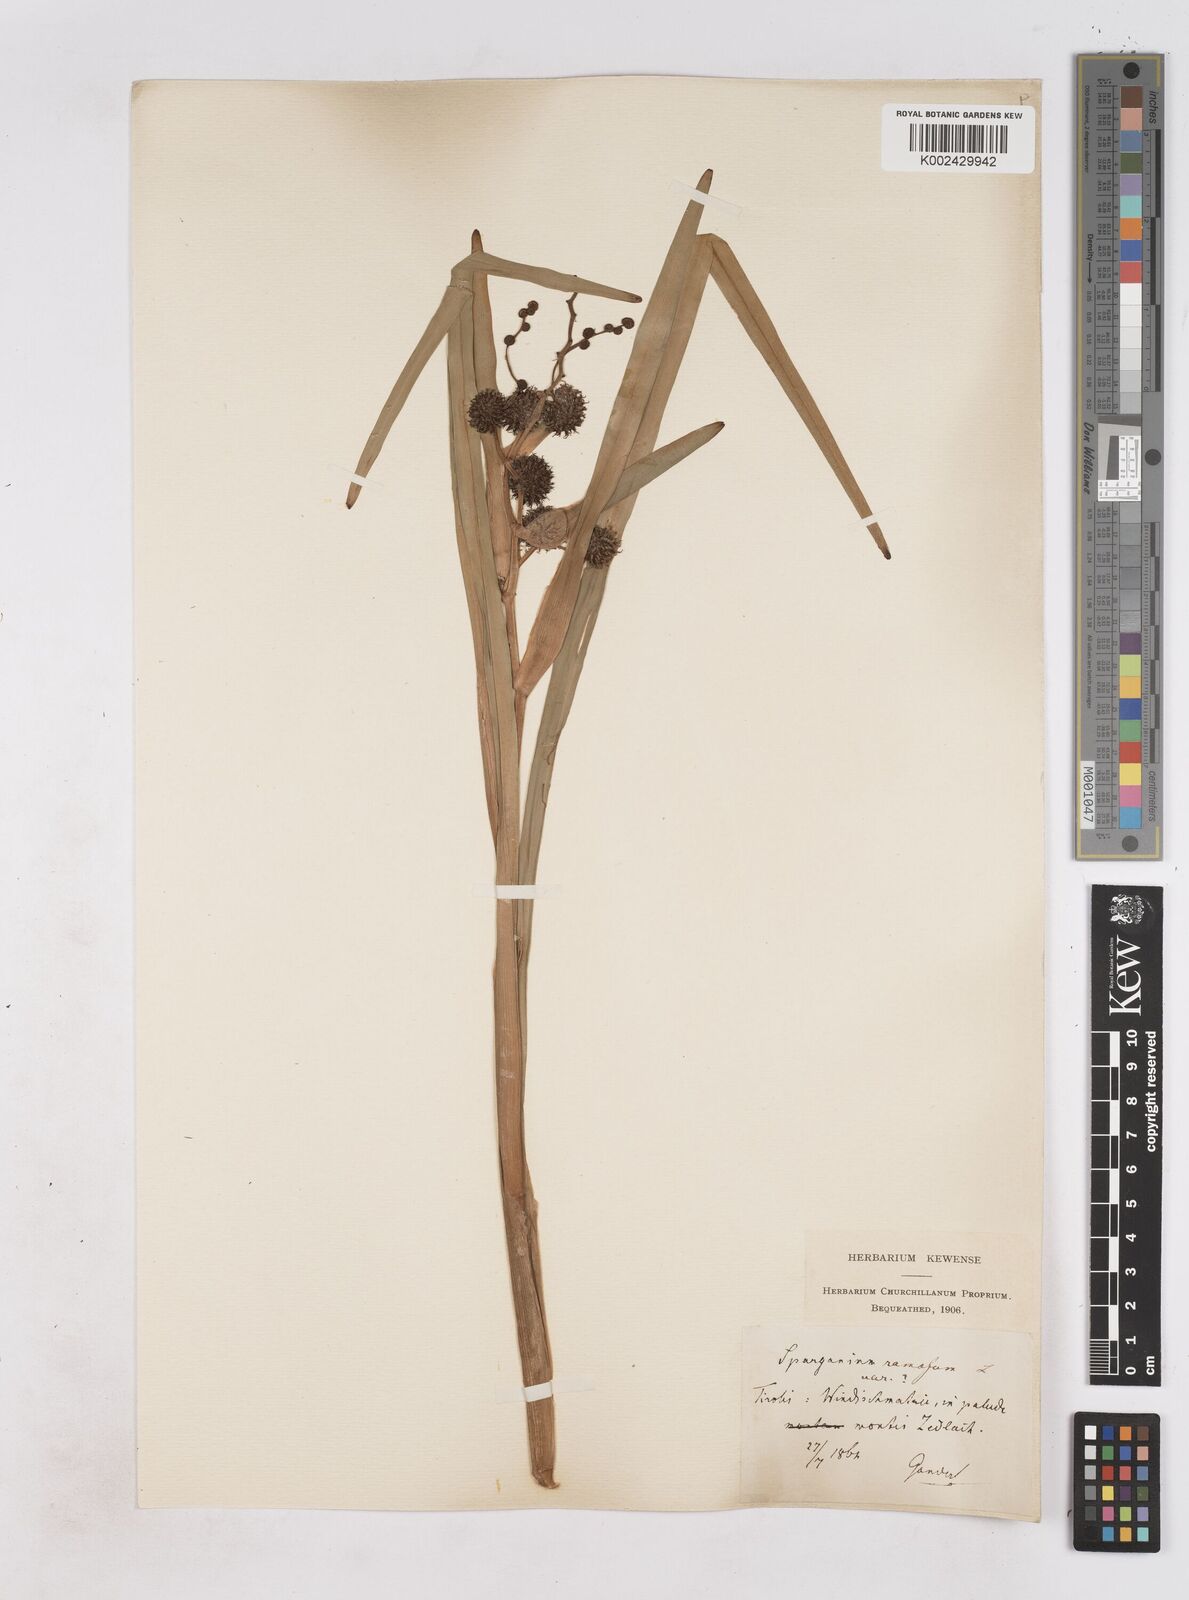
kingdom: Plantae
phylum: Tracheophyta
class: Liliopsida
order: Poales
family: Typhaceae
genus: Sparganium
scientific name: Sparganium erectum
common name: Branched bur-reed
